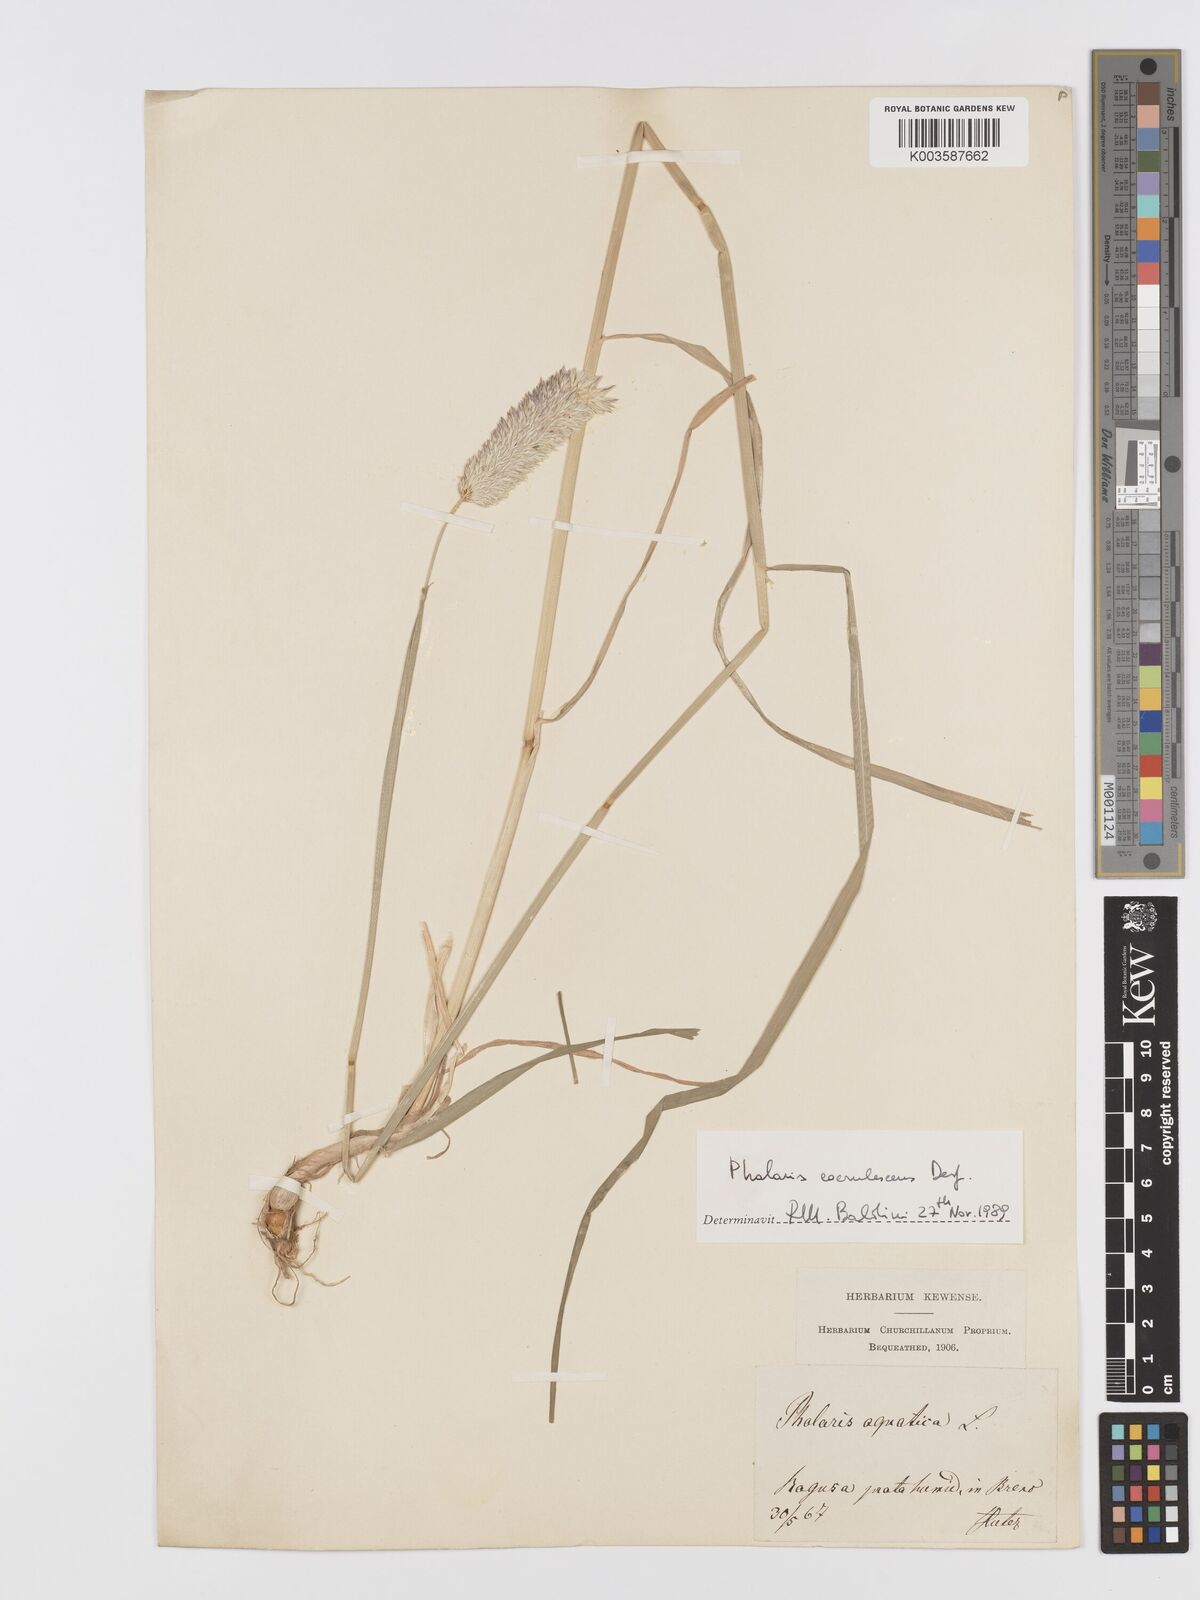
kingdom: Plantae
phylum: Tracheophyta
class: Liliopsida
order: Poales
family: Poaceae
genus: Phalaris
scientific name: Phalaris coerulescens
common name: Sunolgrass
